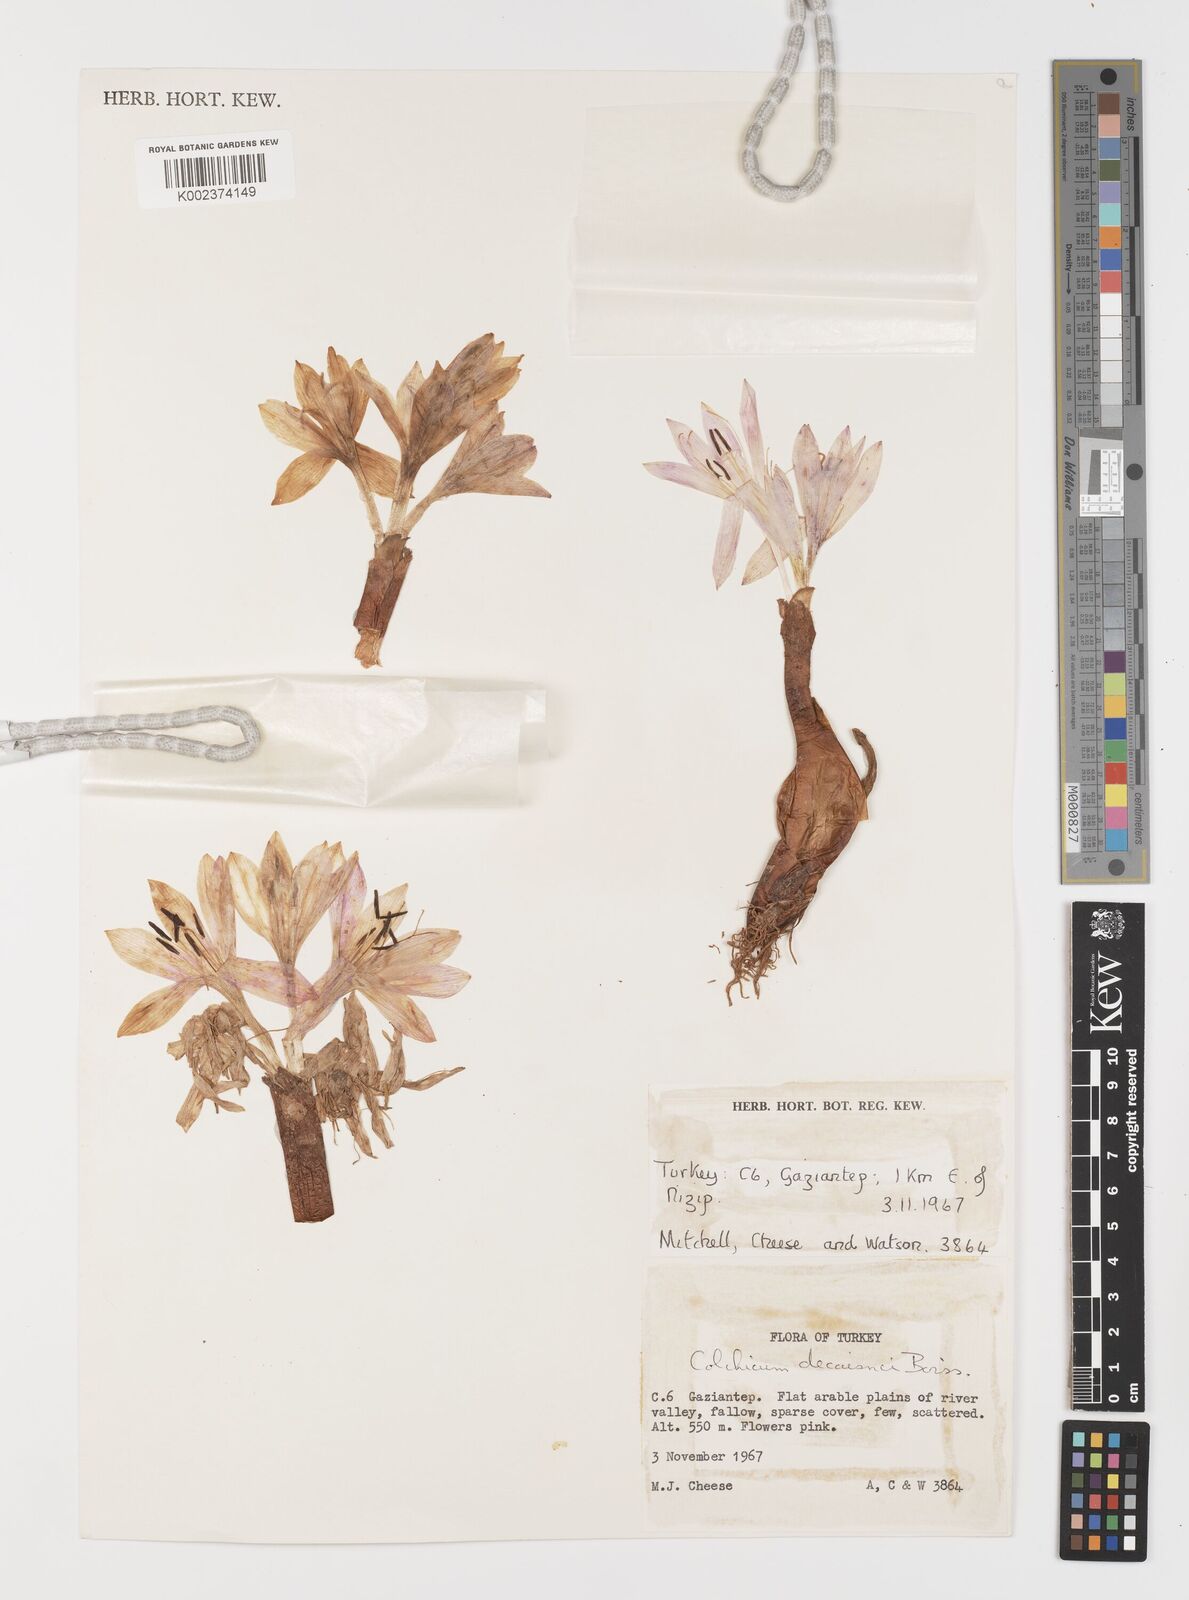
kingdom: Plantae
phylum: Tracheophyta
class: Liliopsida
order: Liliales
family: Colchicaceae
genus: Colchicum
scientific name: Colchicum hierosolymitanum
